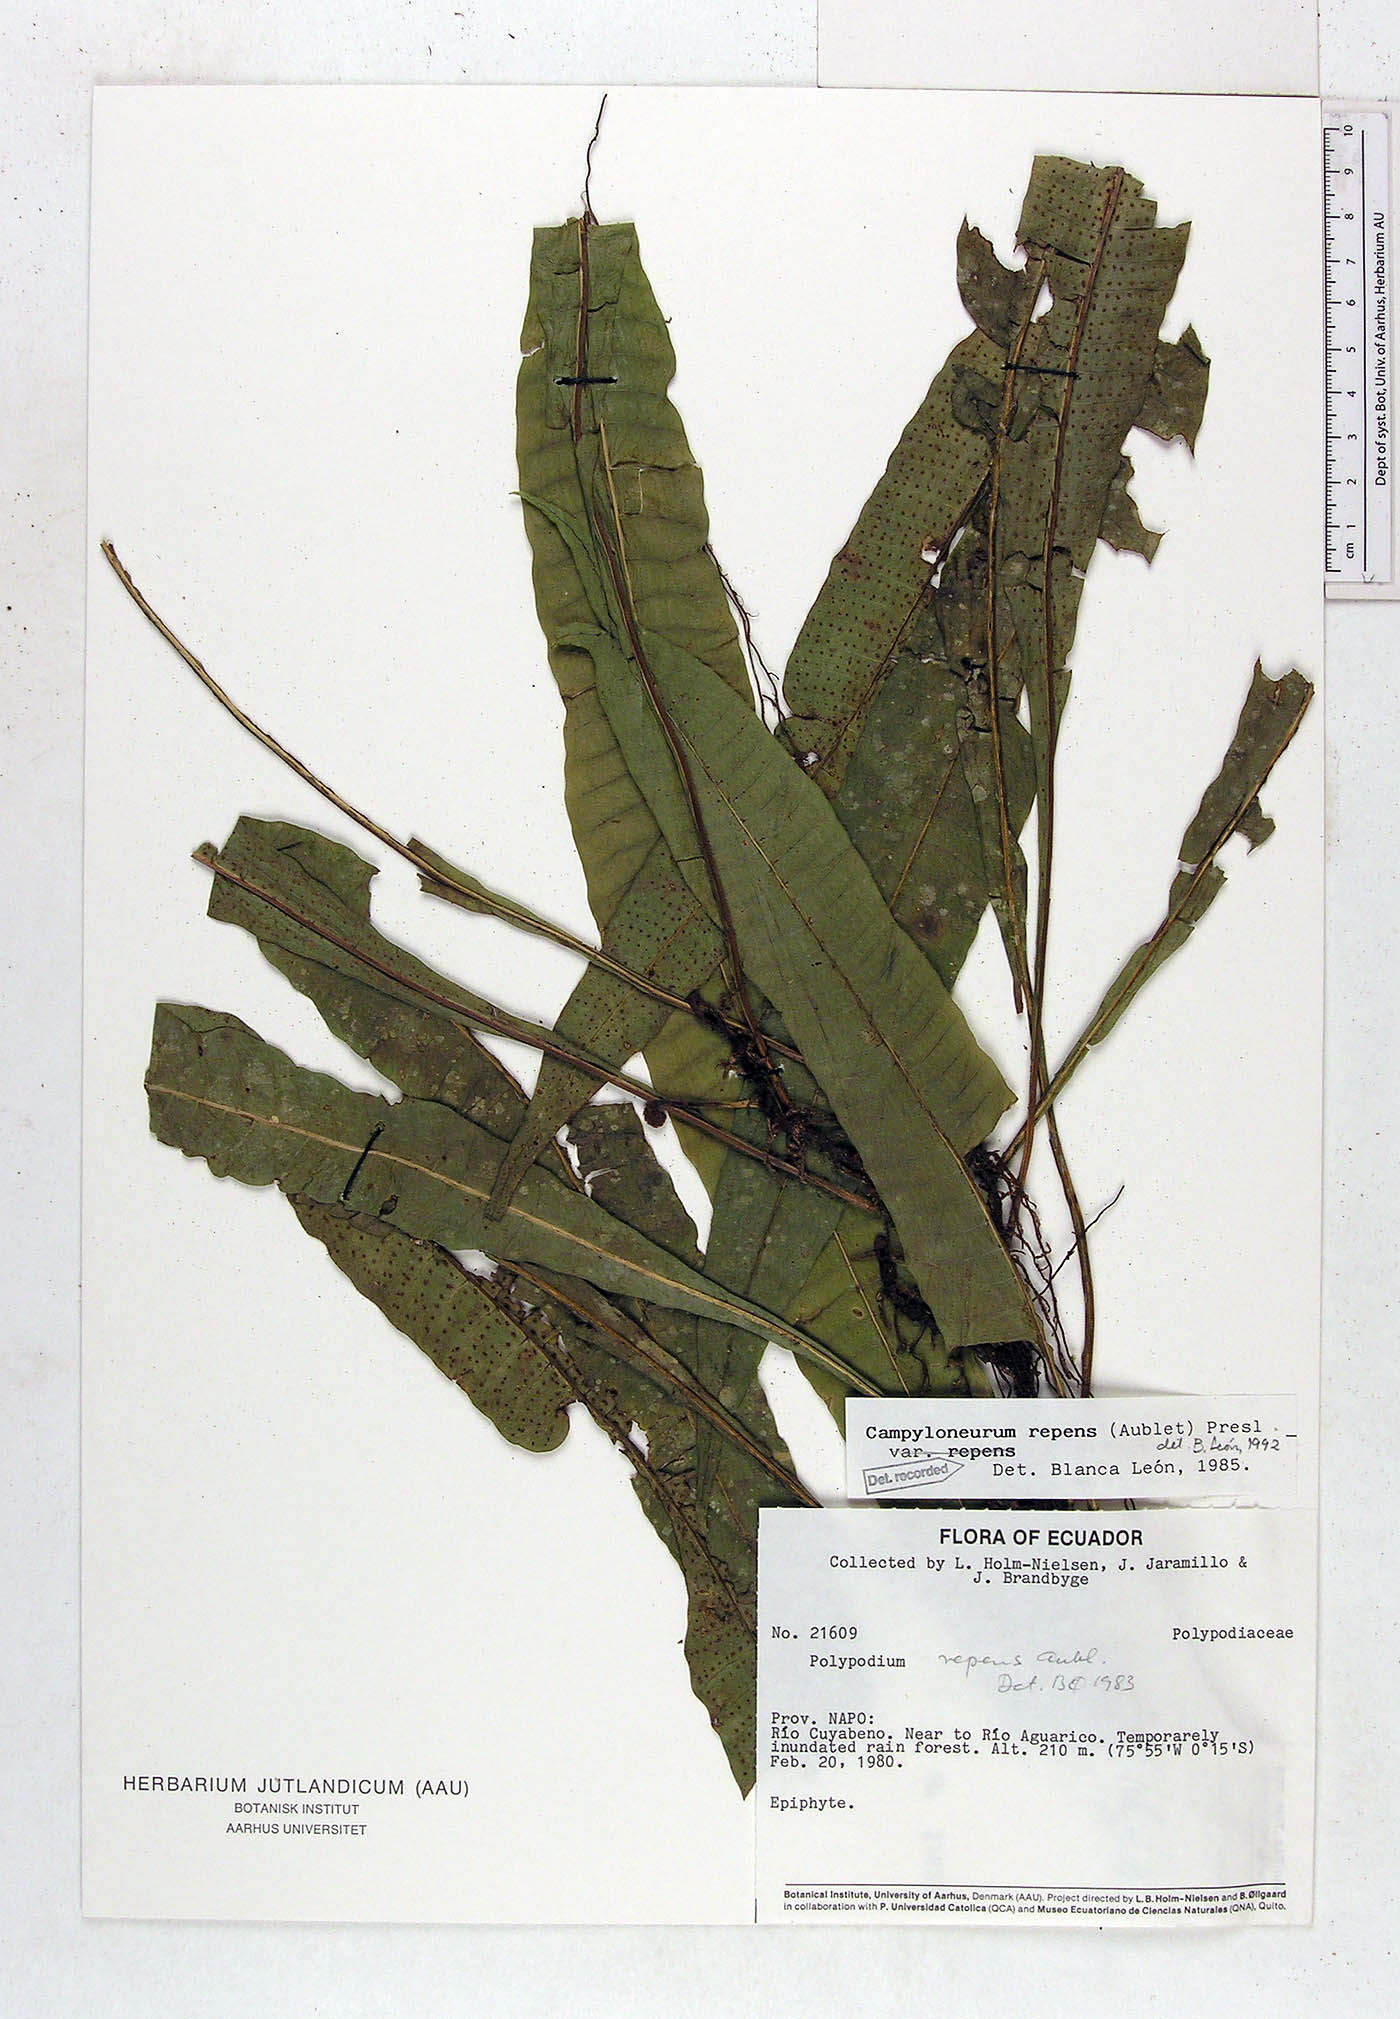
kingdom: Plantae
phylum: Tracheophyta
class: Polypodiopsida
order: Polypodiales
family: Polypodiaceae
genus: Campyloneurum
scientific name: Campyloneurum repens
